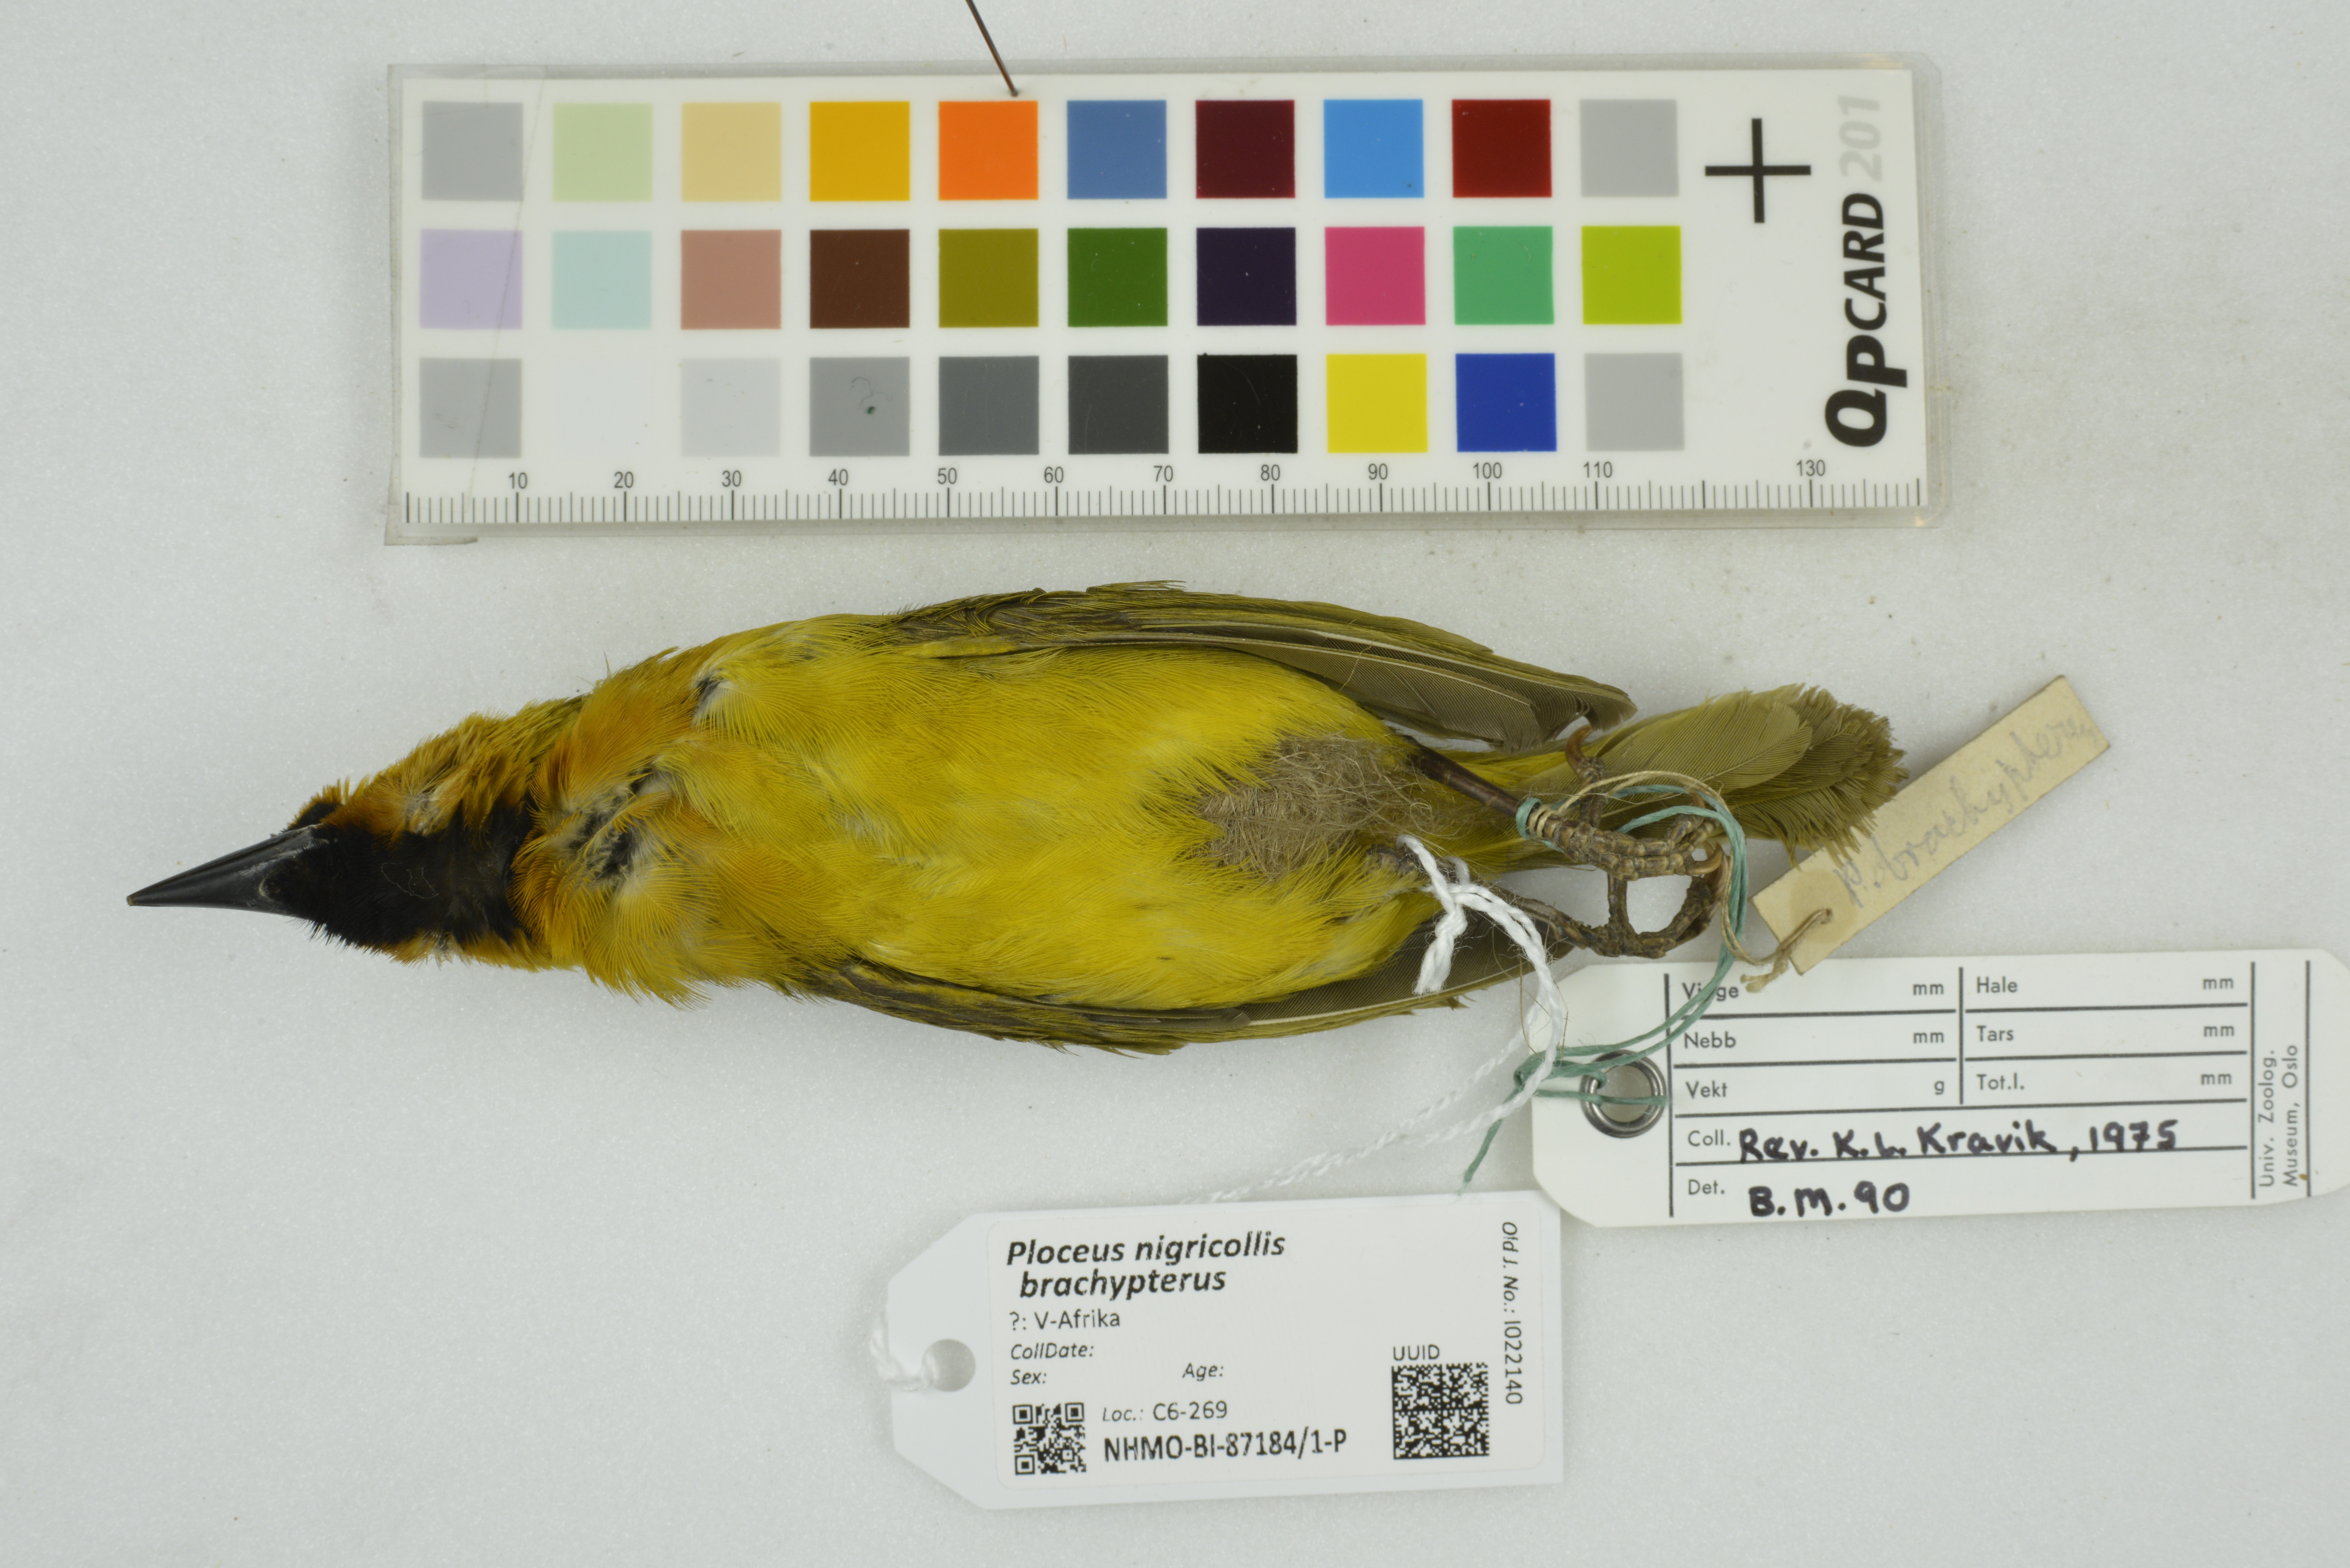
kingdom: Animalia
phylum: Chordata
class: Aves
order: Passeriformes
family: Ploceidae
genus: Ploceus
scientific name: Ploceus nigricollis
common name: Black-necked weaver
